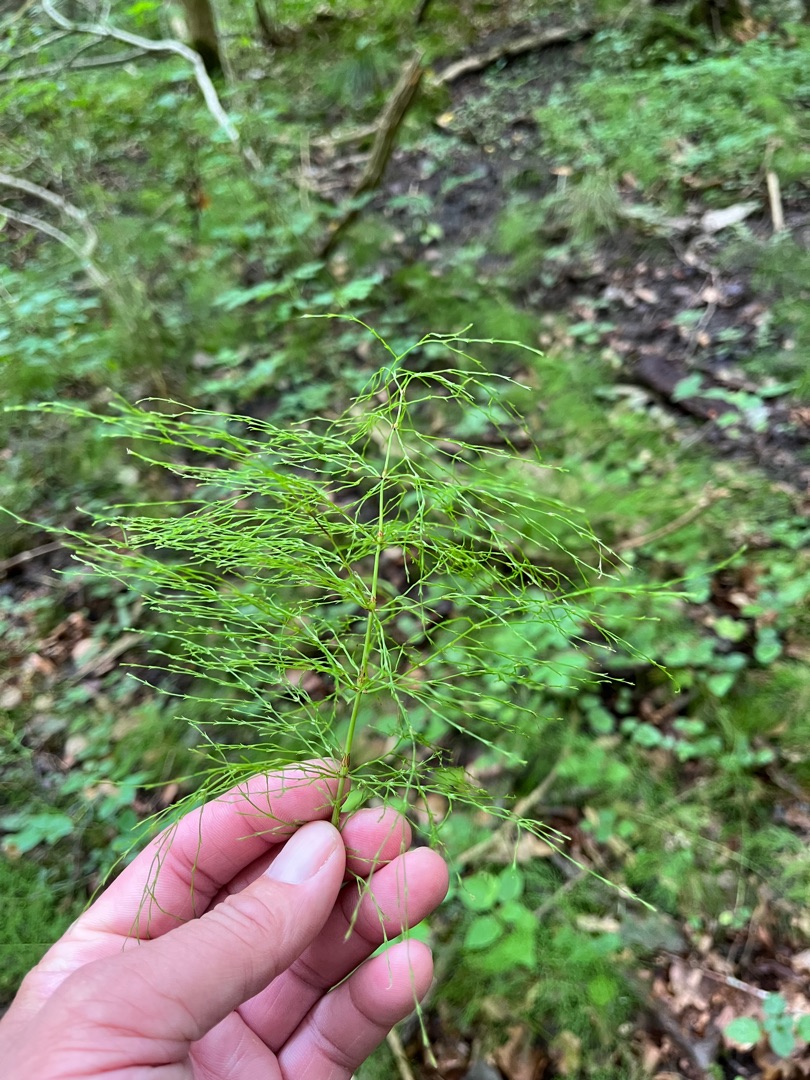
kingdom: Plantae
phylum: Tracheophyta
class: Polypodiopsida
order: Equisetales
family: Equisetaceae
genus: Equisetum
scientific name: Equisetum sylvaticum
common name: Skov-padderok
